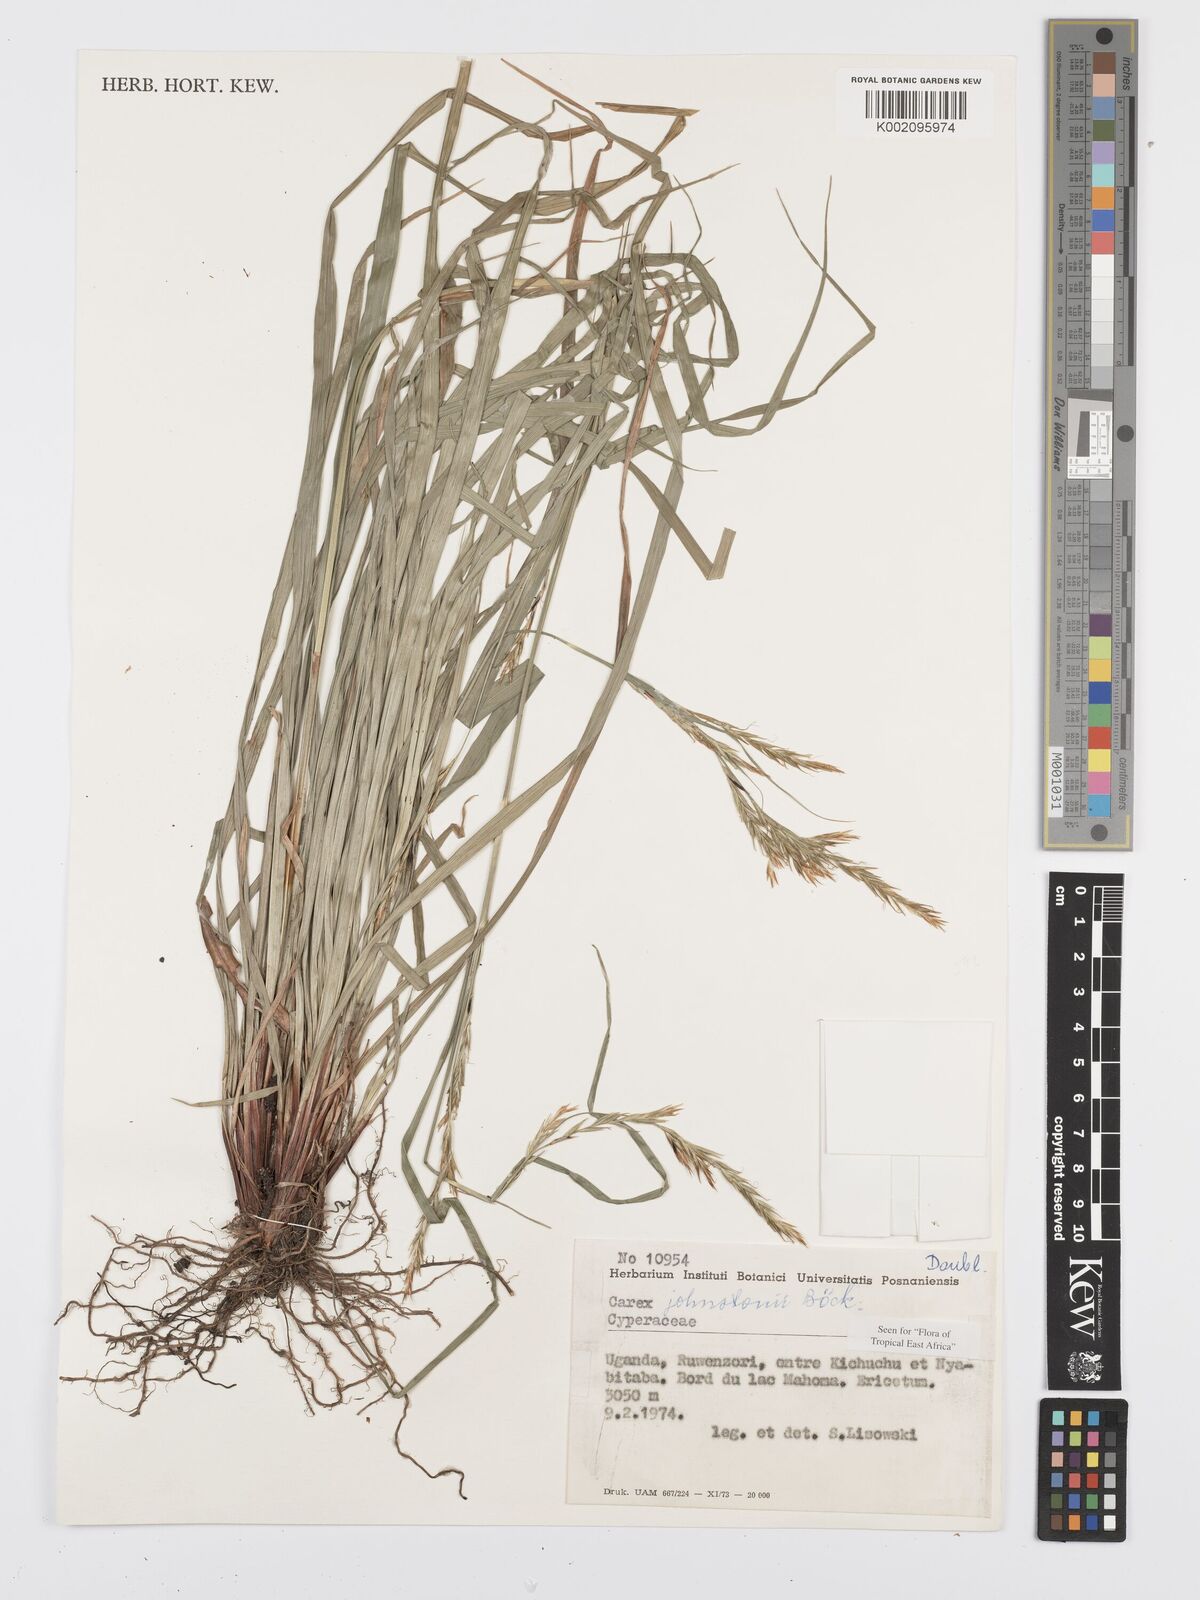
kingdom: Plantae
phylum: Tracheophyta
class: Liliopsida
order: Poales
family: Cyperaceae
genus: Carex
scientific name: Carex johnstonii
